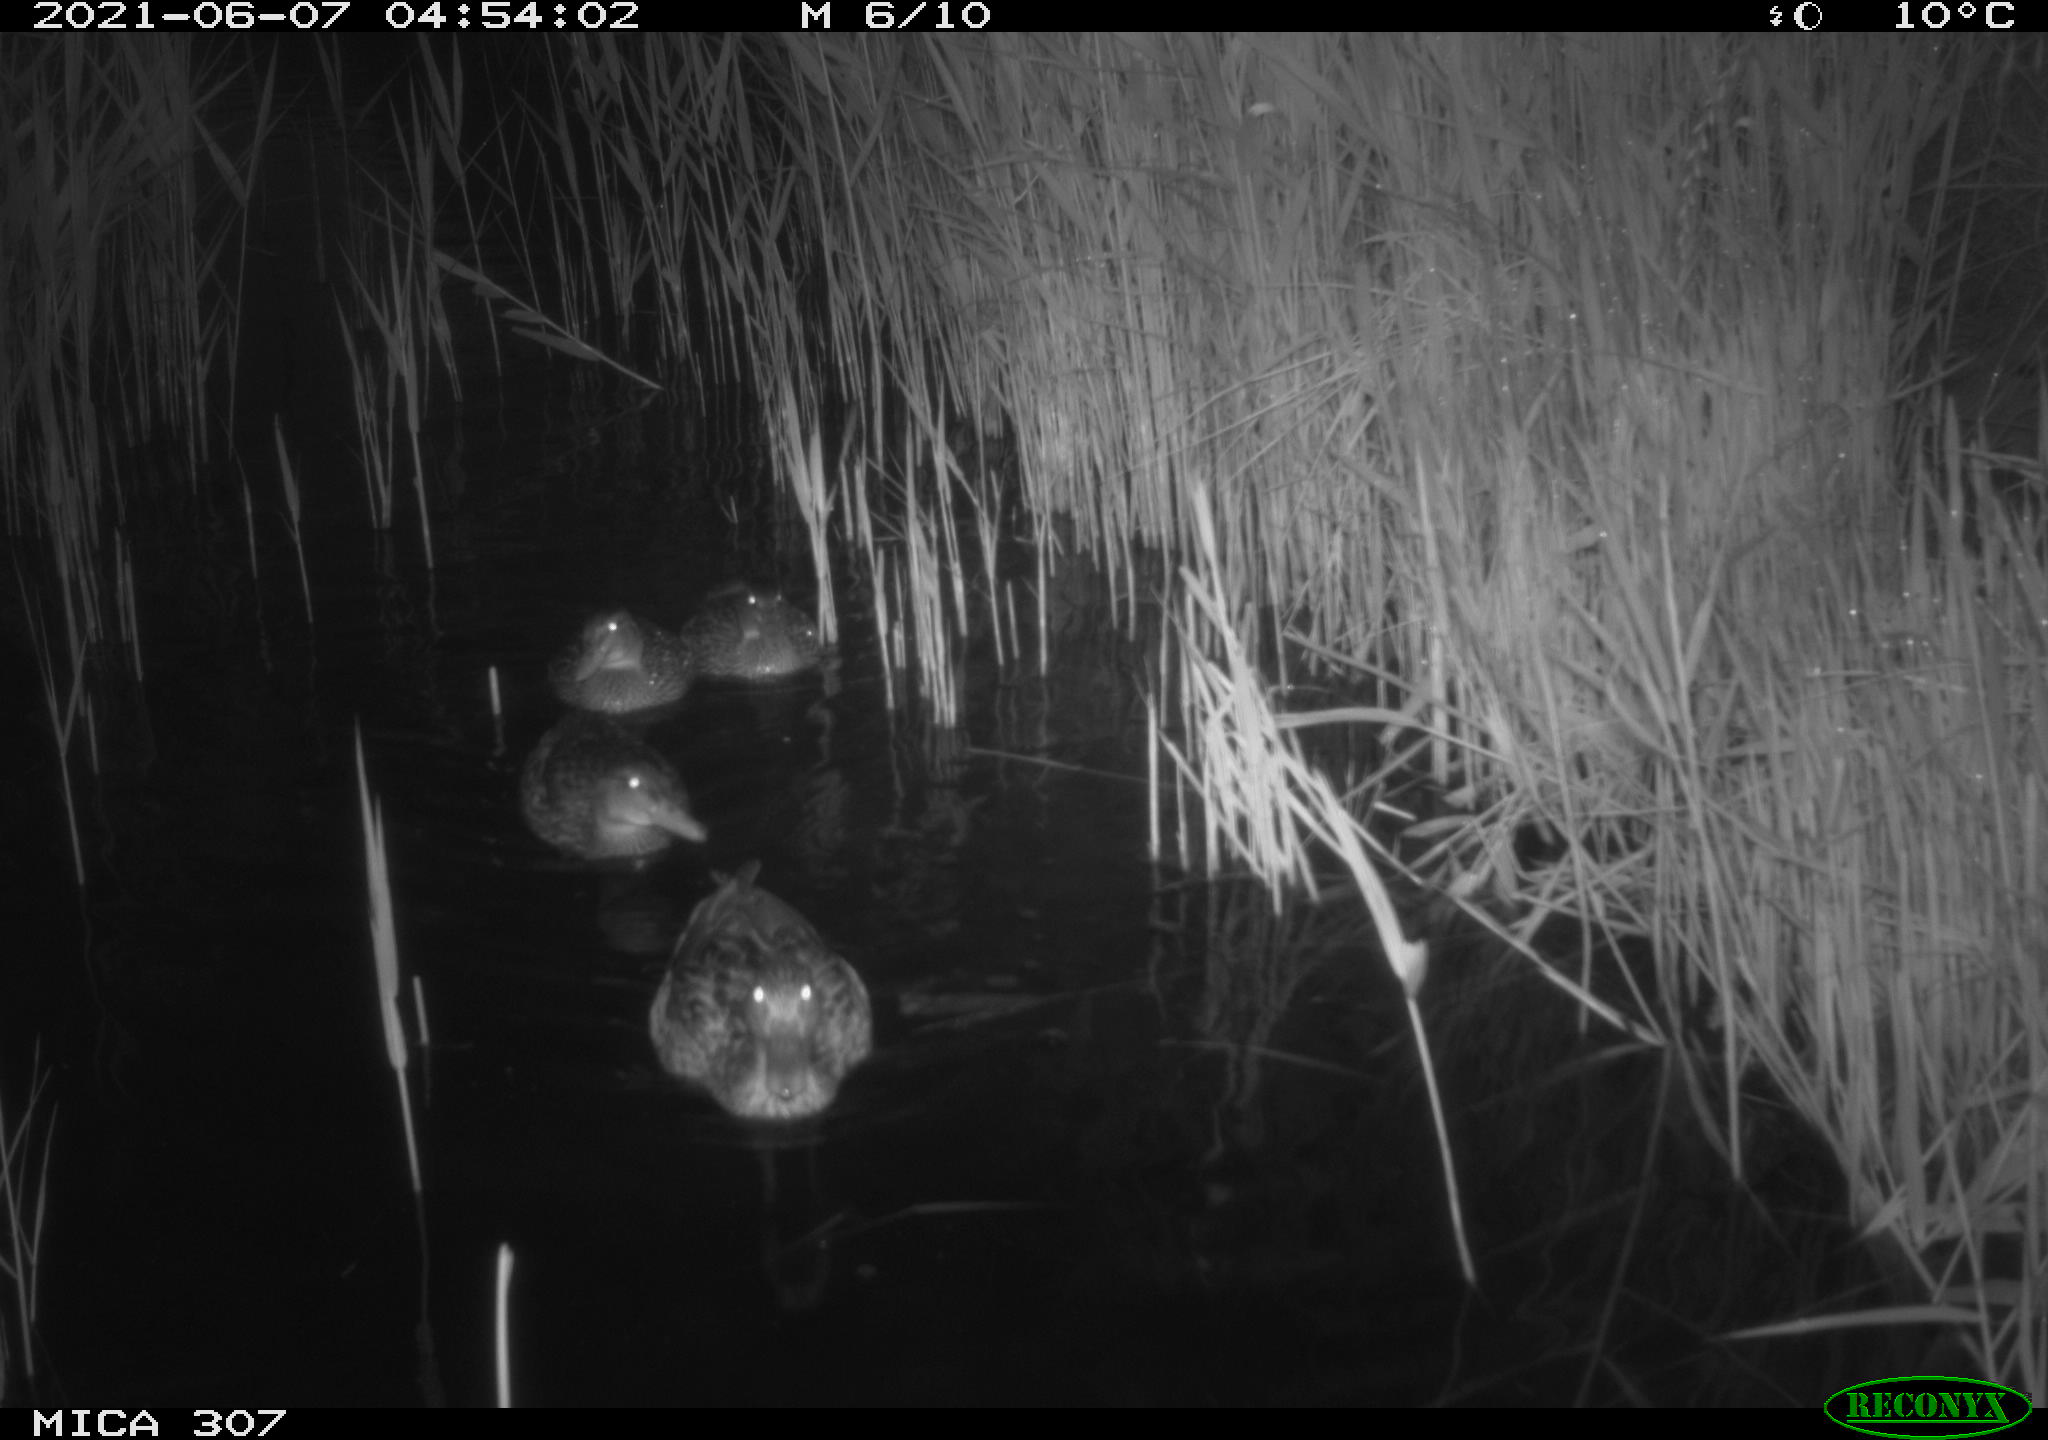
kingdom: Animalia
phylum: Chordata
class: Aves
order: Anseriformes
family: Anatidae
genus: Anas
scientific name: Anas platyrhynchos
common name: Mallard
